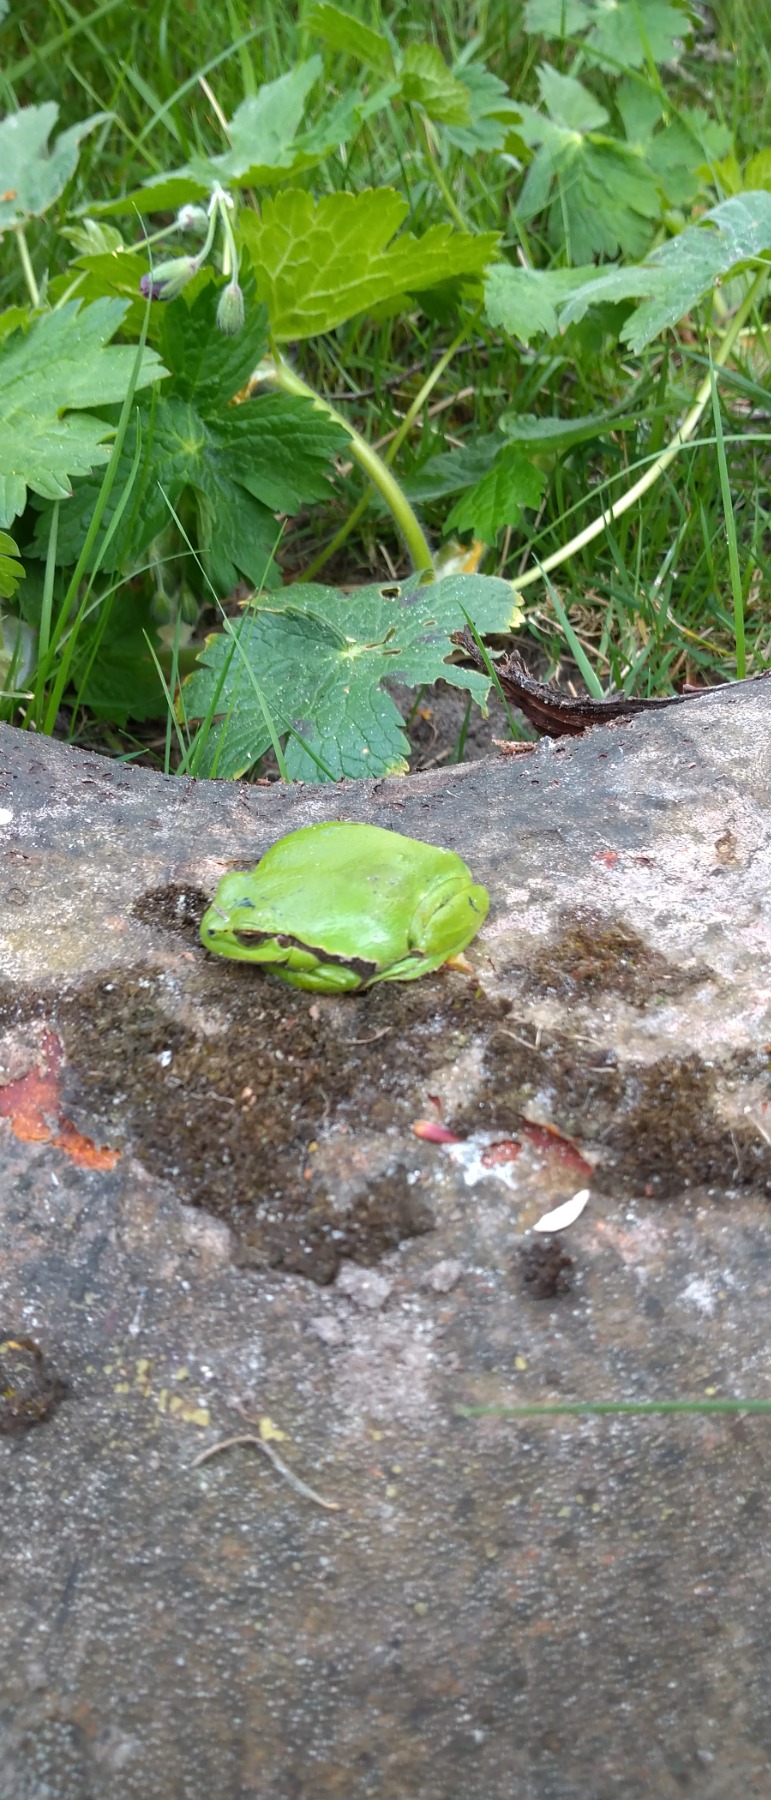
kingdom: Animalia
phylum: Chordata
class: Amphibia
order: Anura
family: Hylidae
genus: Hyla
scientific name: Hyla arborea
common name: Løvfrø
